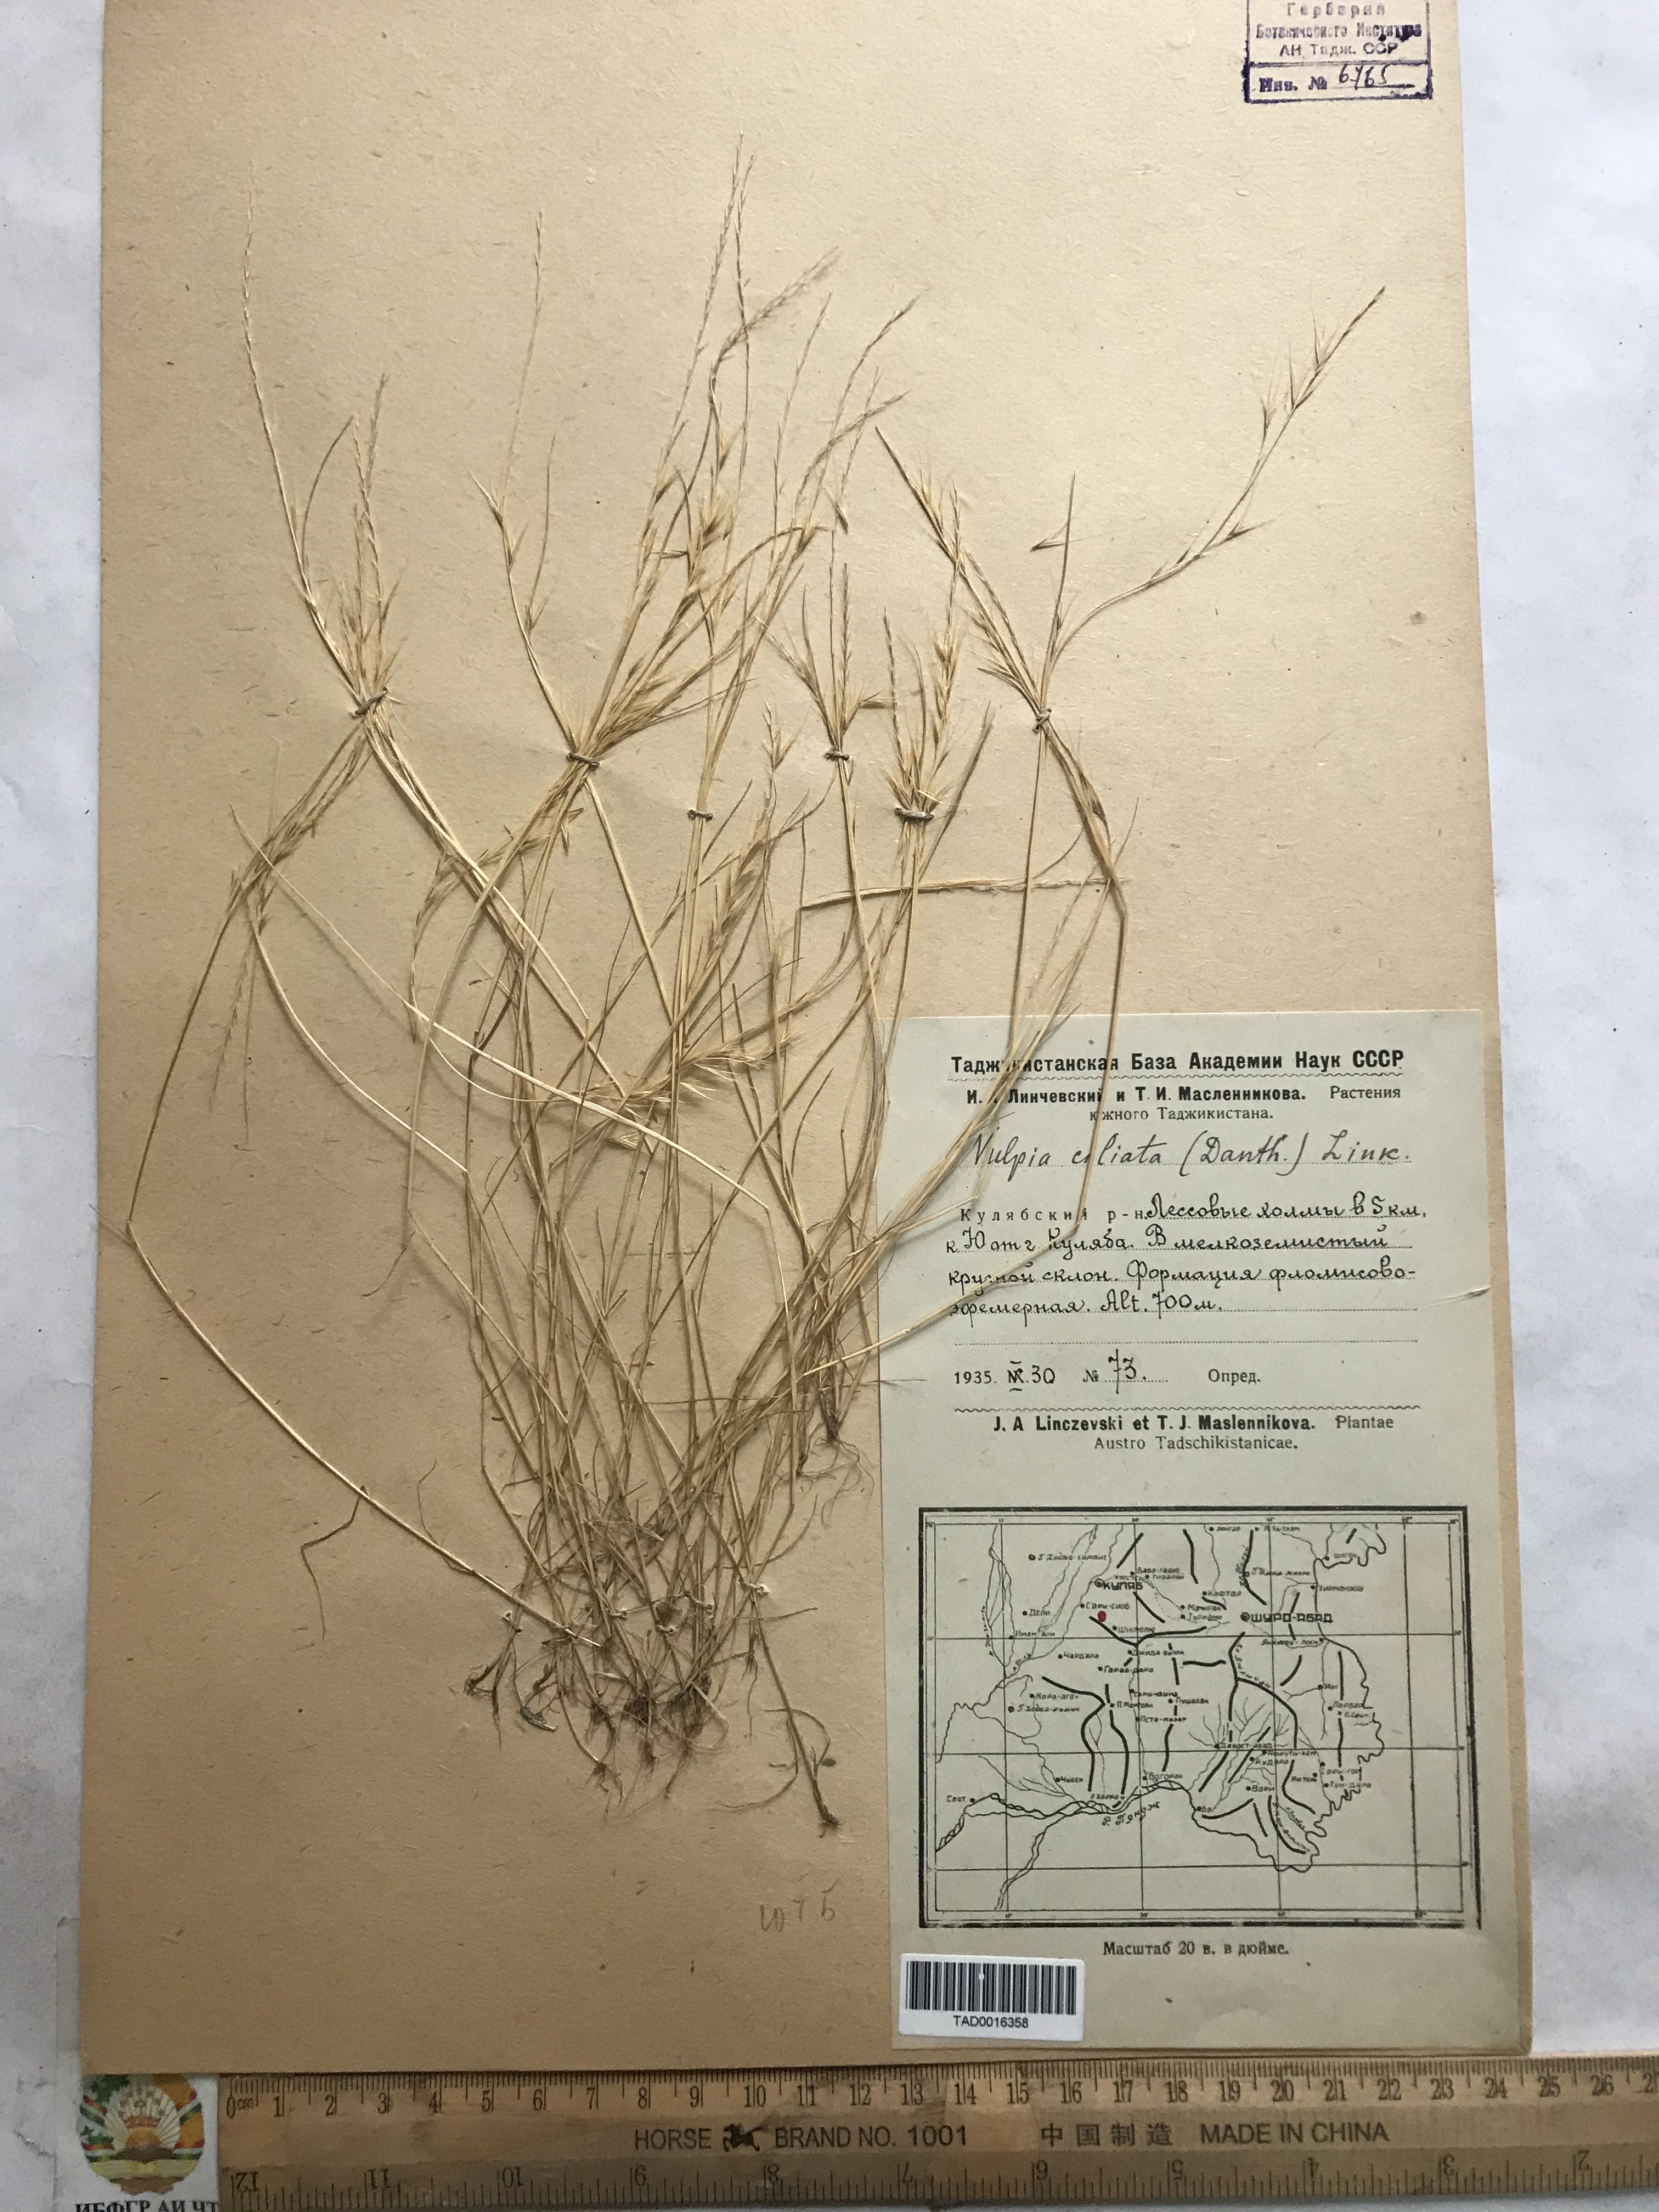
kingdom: Plantae
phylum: Tracheophyta
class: Liliopsida
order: Poales
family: Poaceae
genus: Festuca
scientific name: Festuca ambigua
